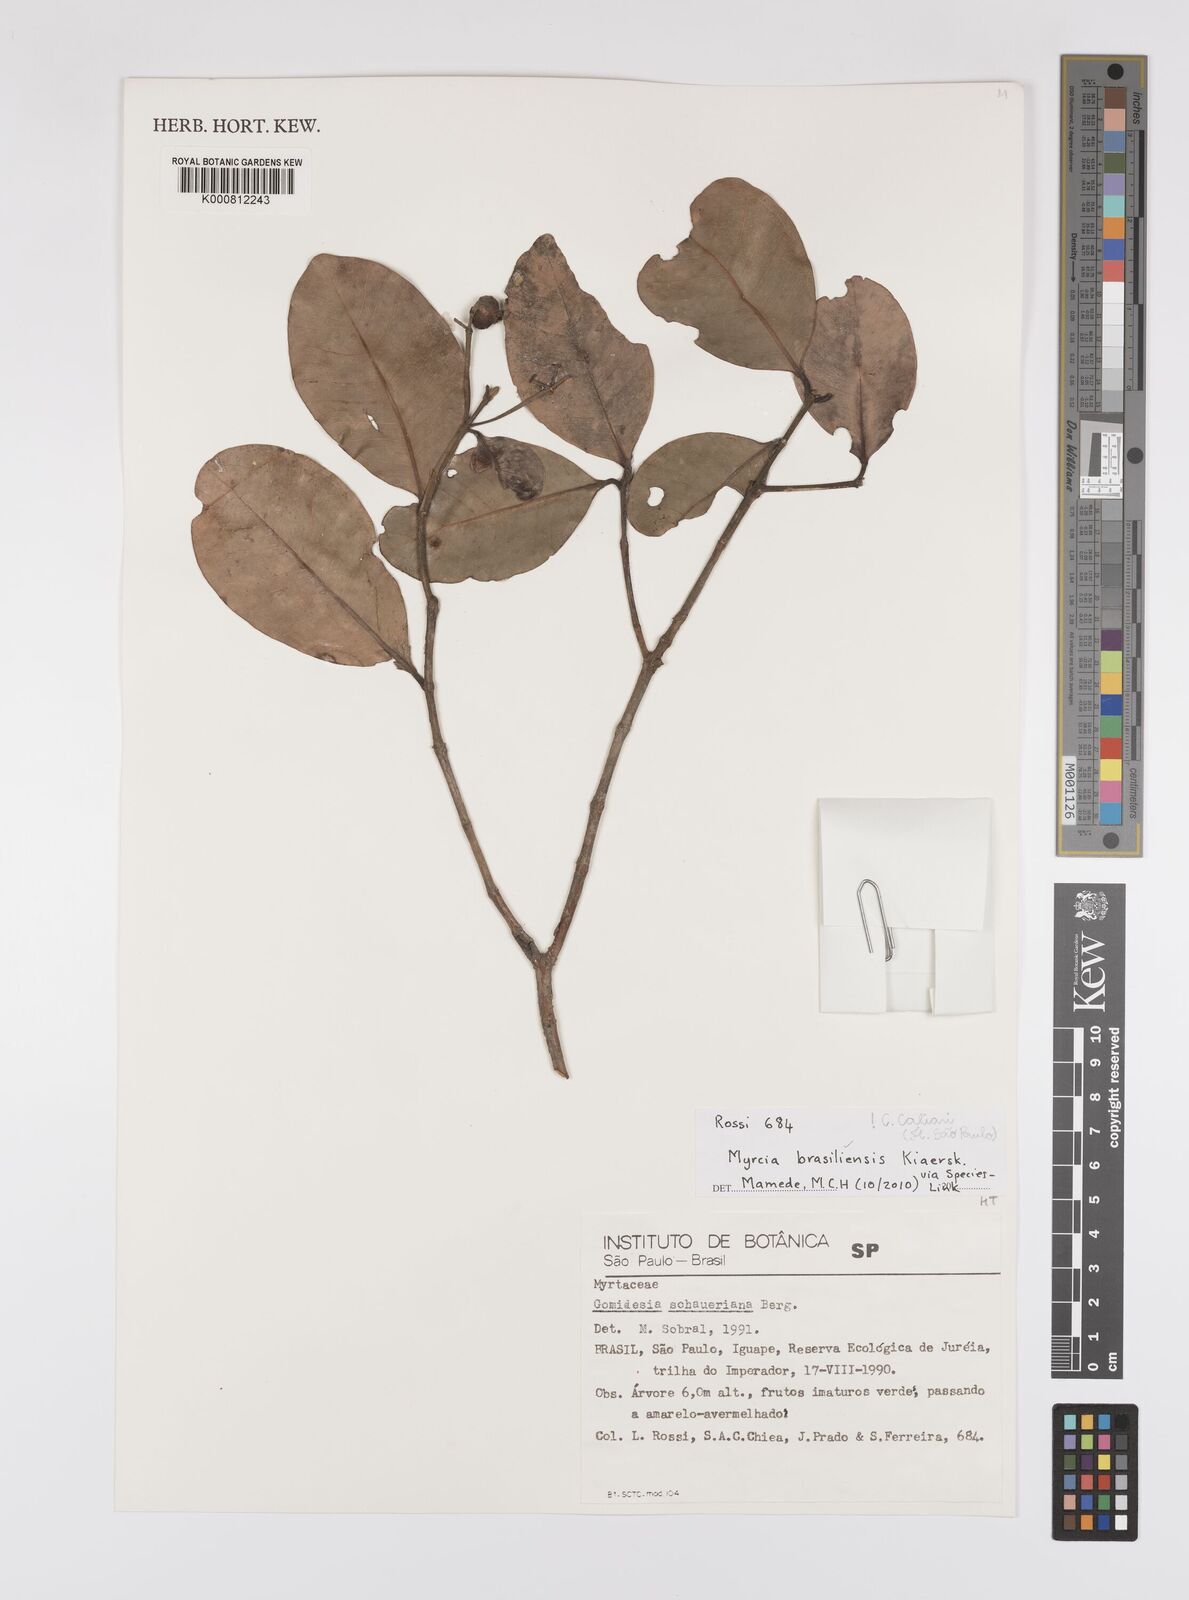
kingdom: Plantae
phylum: Tracheophyta
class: Magnoliopsida
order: Myrtales
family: Myrtaceae
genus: Myrcia
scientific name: Myrcia freyreissiana
